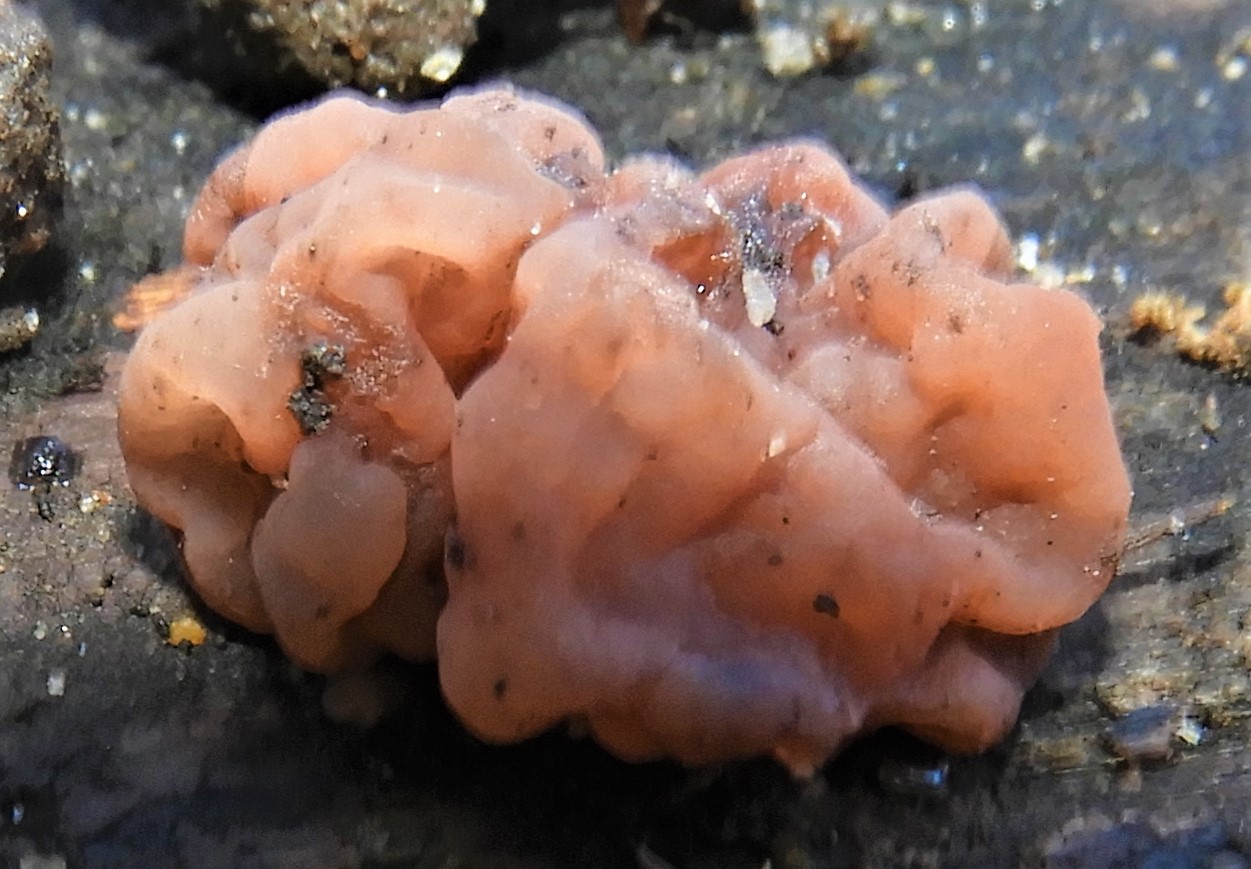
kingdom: Fungi
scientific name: Fungi
